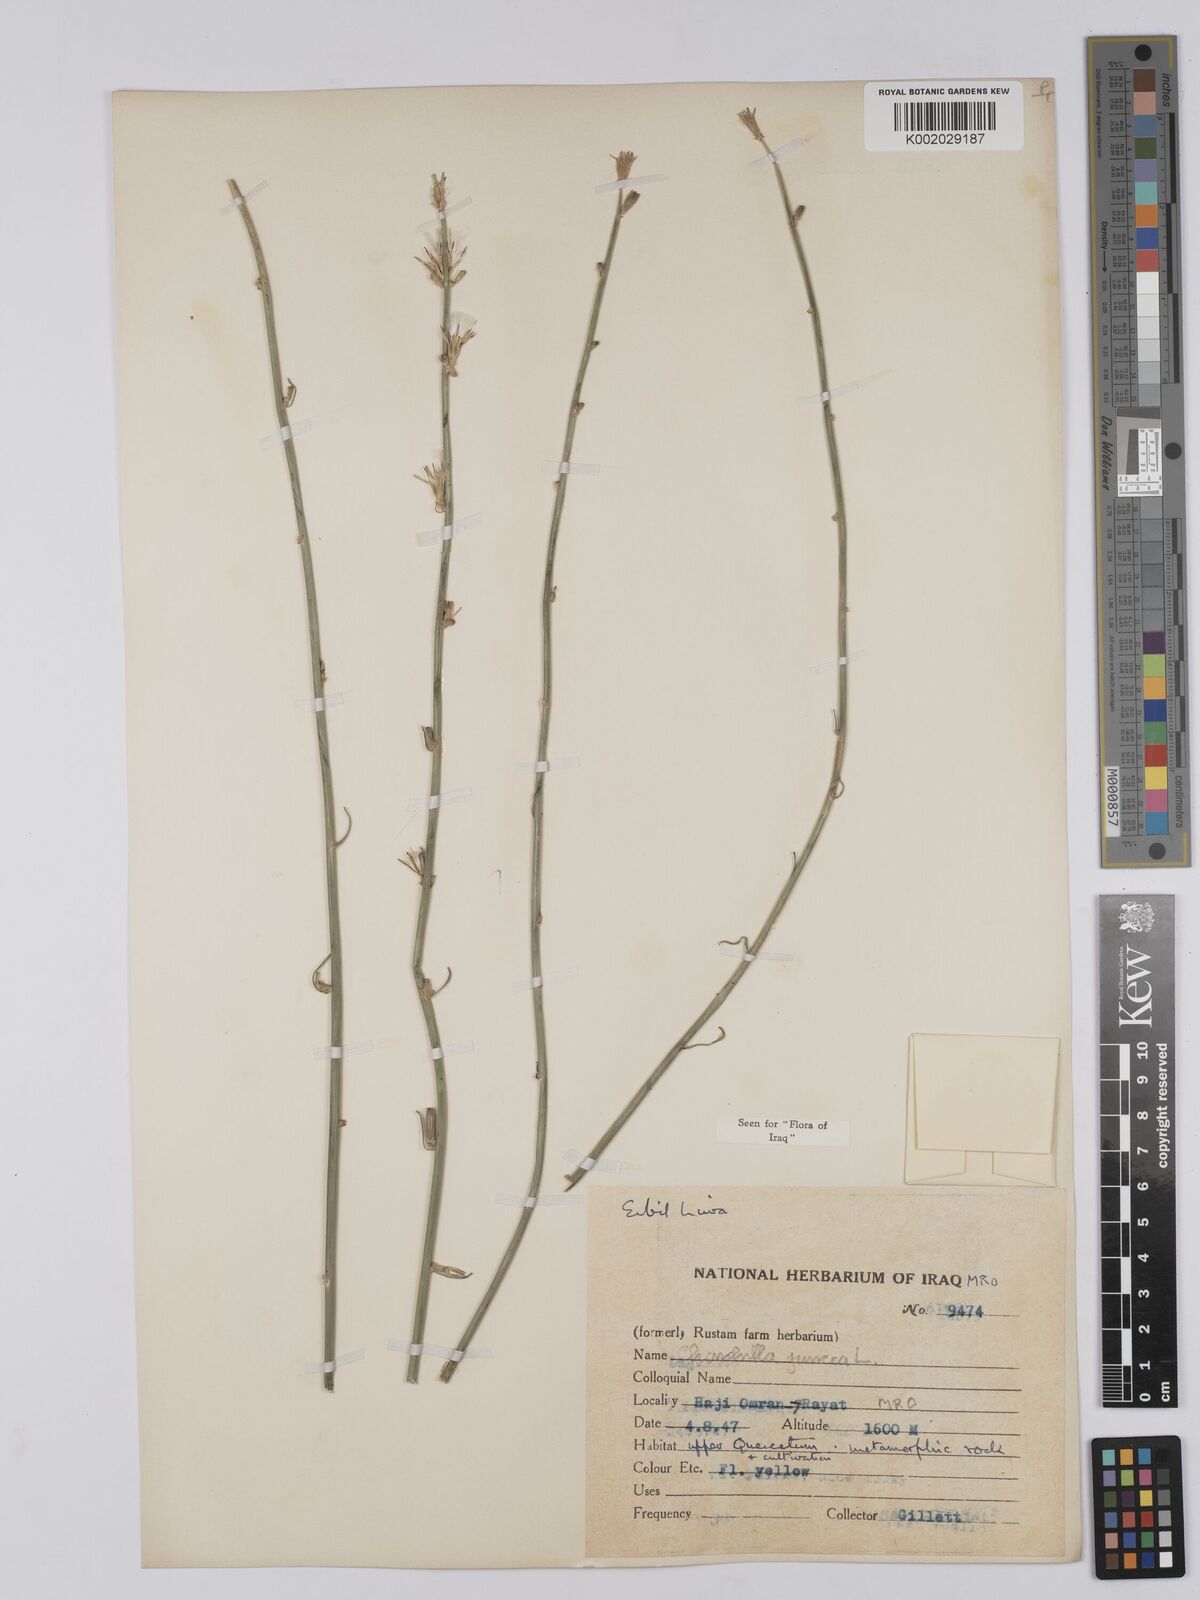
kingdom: Plantae
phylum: Tracheophyta
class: Magnoliopsida
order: Asterales
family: Asteraceae
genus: Chondrilla
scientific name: Chondrilla juncea
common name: Skeleton weed
